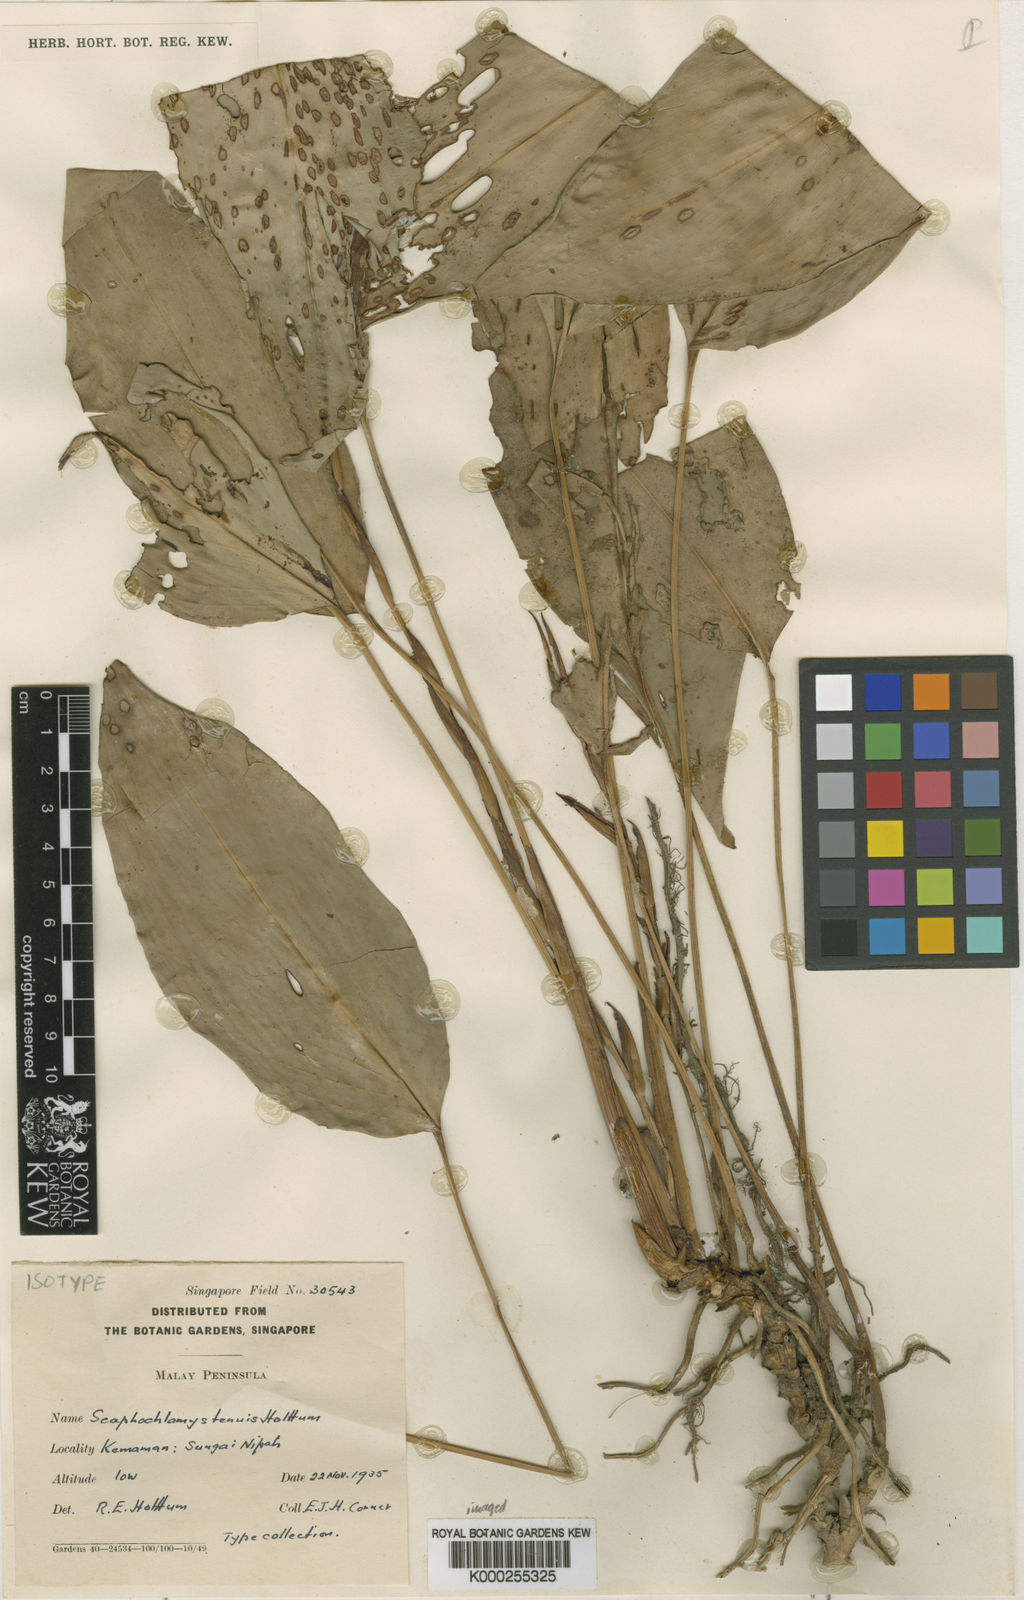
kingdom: Plantae
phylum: Tracheophyta
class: Liliopsida
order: Zingiberales
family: Zingiberaceae
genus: Scaphochlamys
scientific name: Scaphochlamys tenuis
